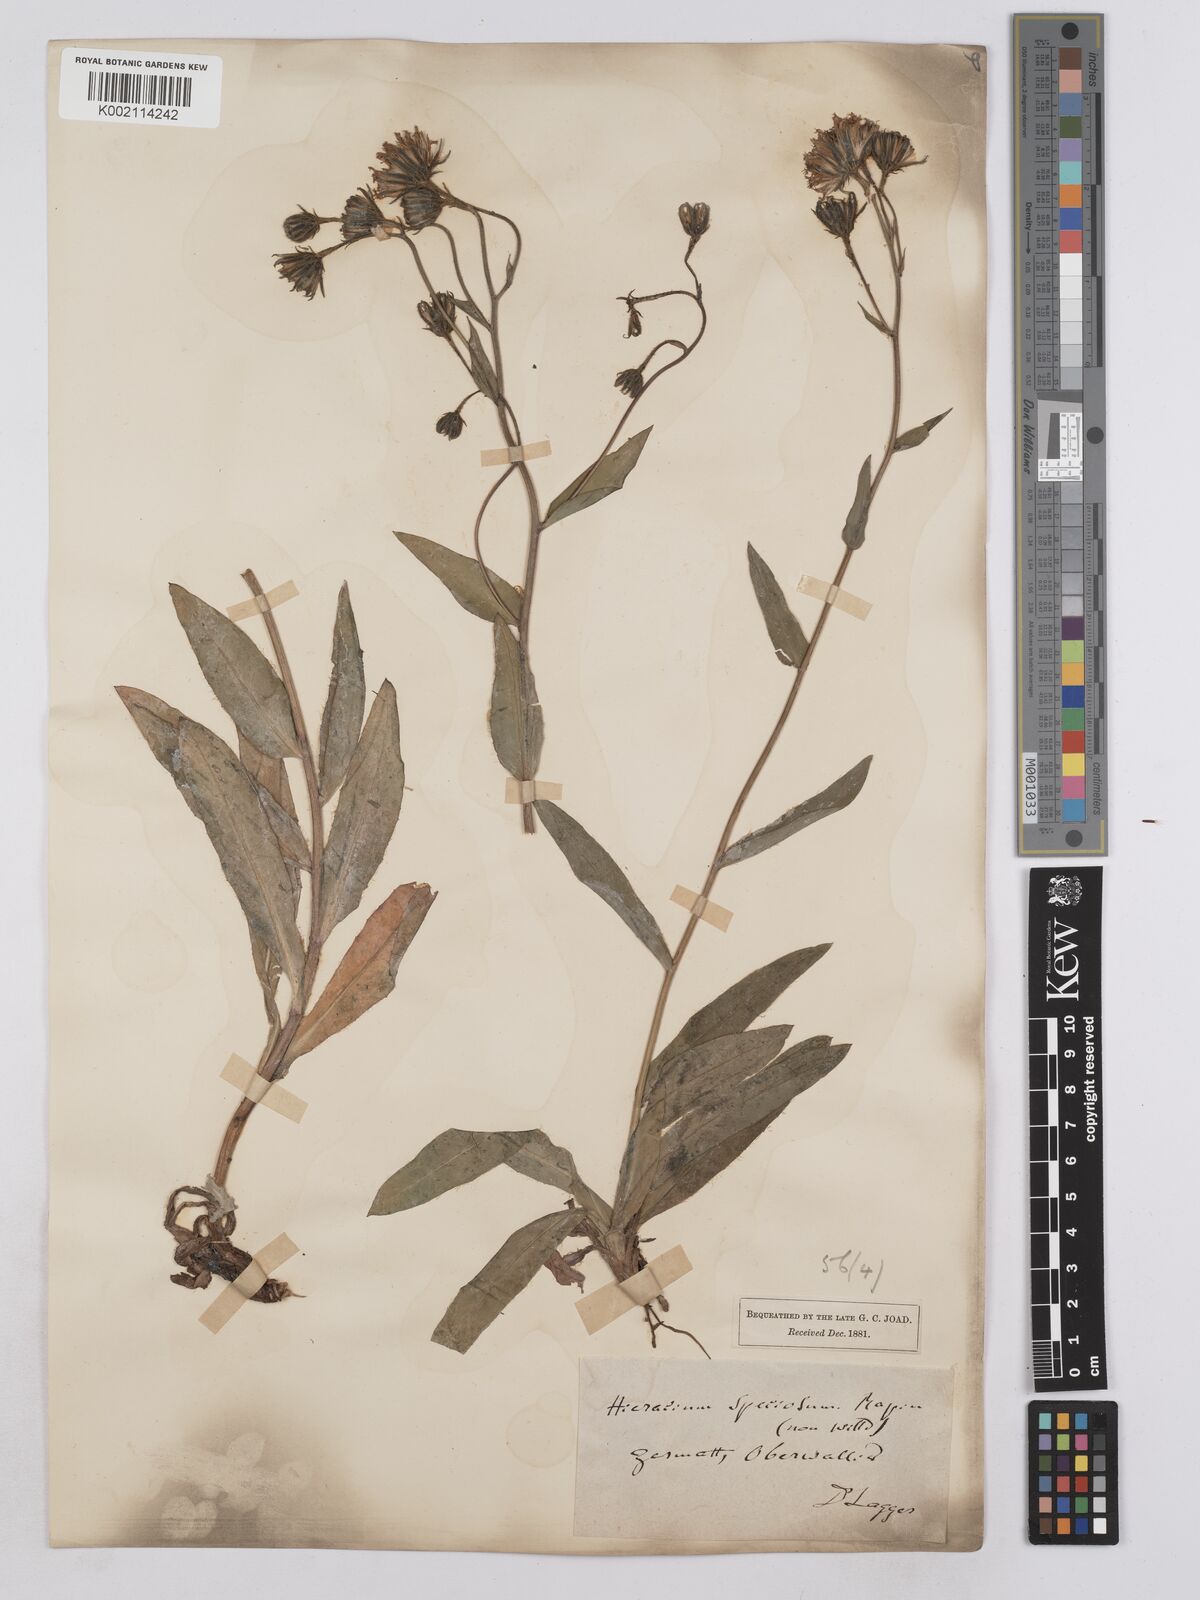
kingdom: Plantae
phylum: Tracheophyta
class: Magnoliopsida
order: Asterales
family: Asteraceae
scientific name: Asteraceae
